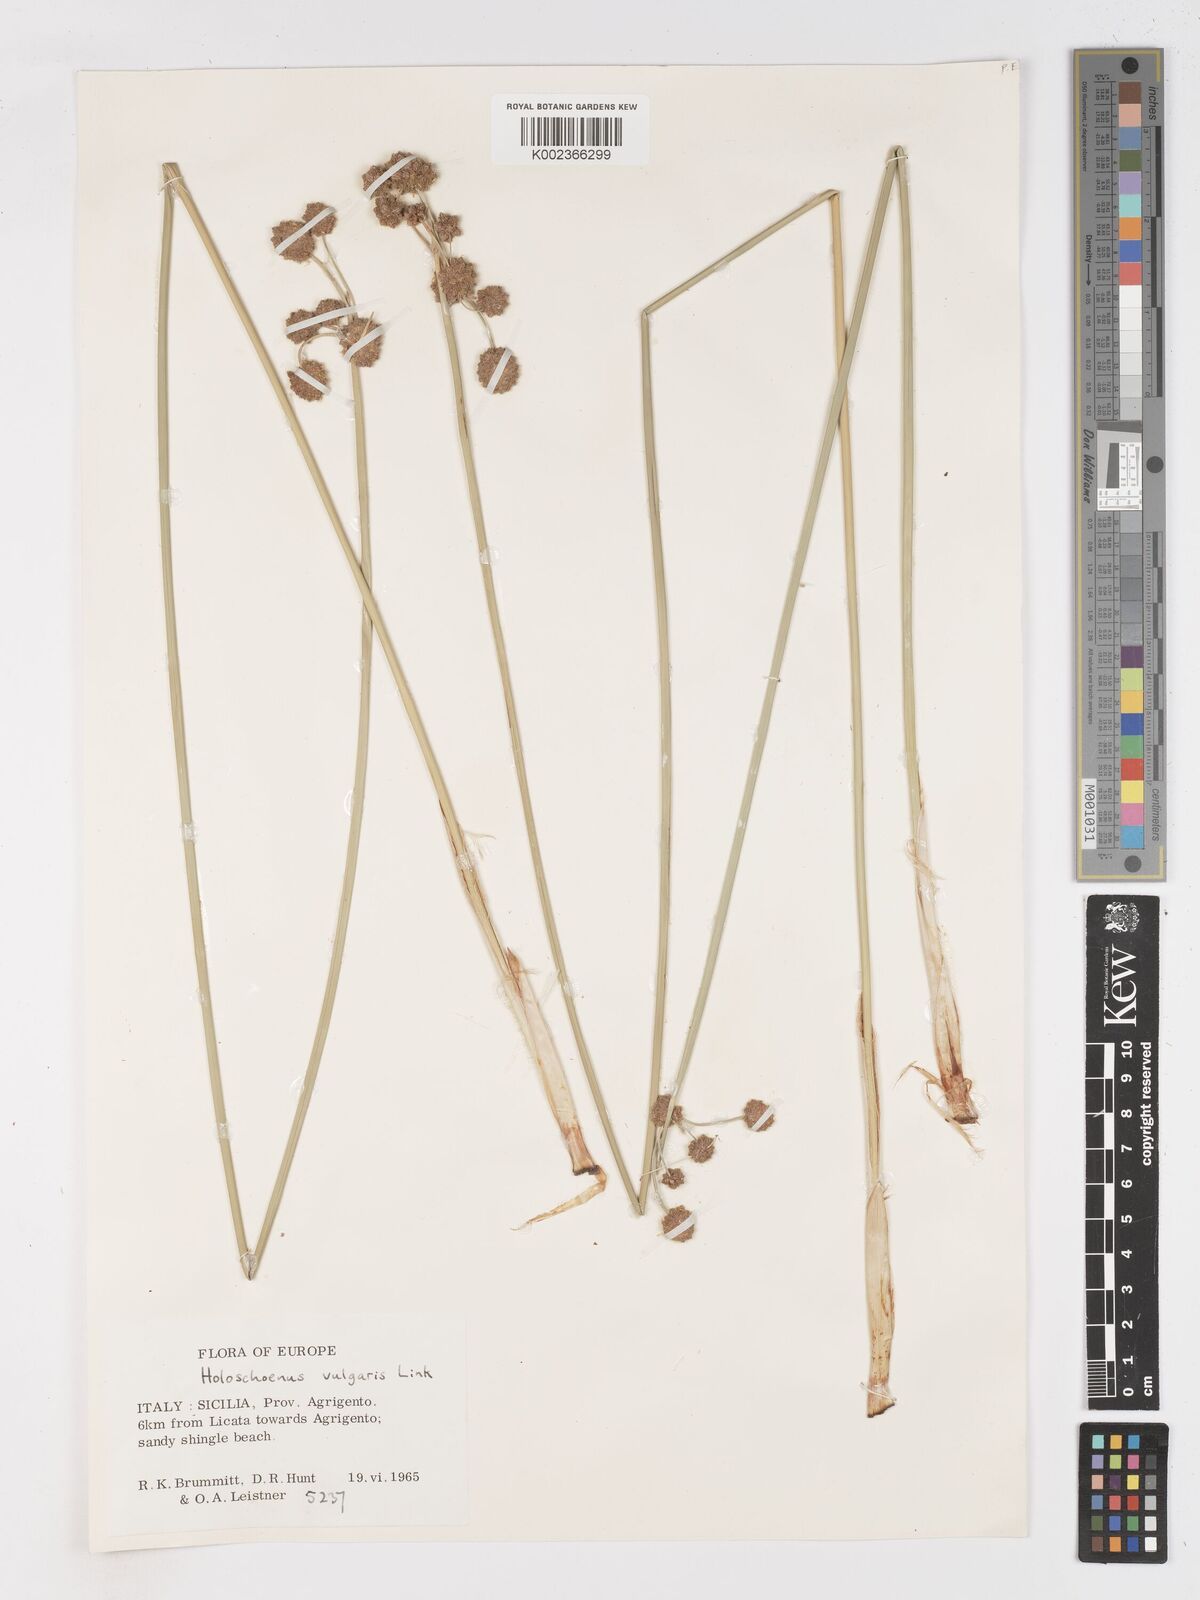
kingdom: Plantae
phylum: Tracheophyta
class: Liliopsida
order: Poales
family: Cyperaceae
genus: Scirpoides
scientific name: Scirpoides holoschoenus
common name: Round-headed club-rush
